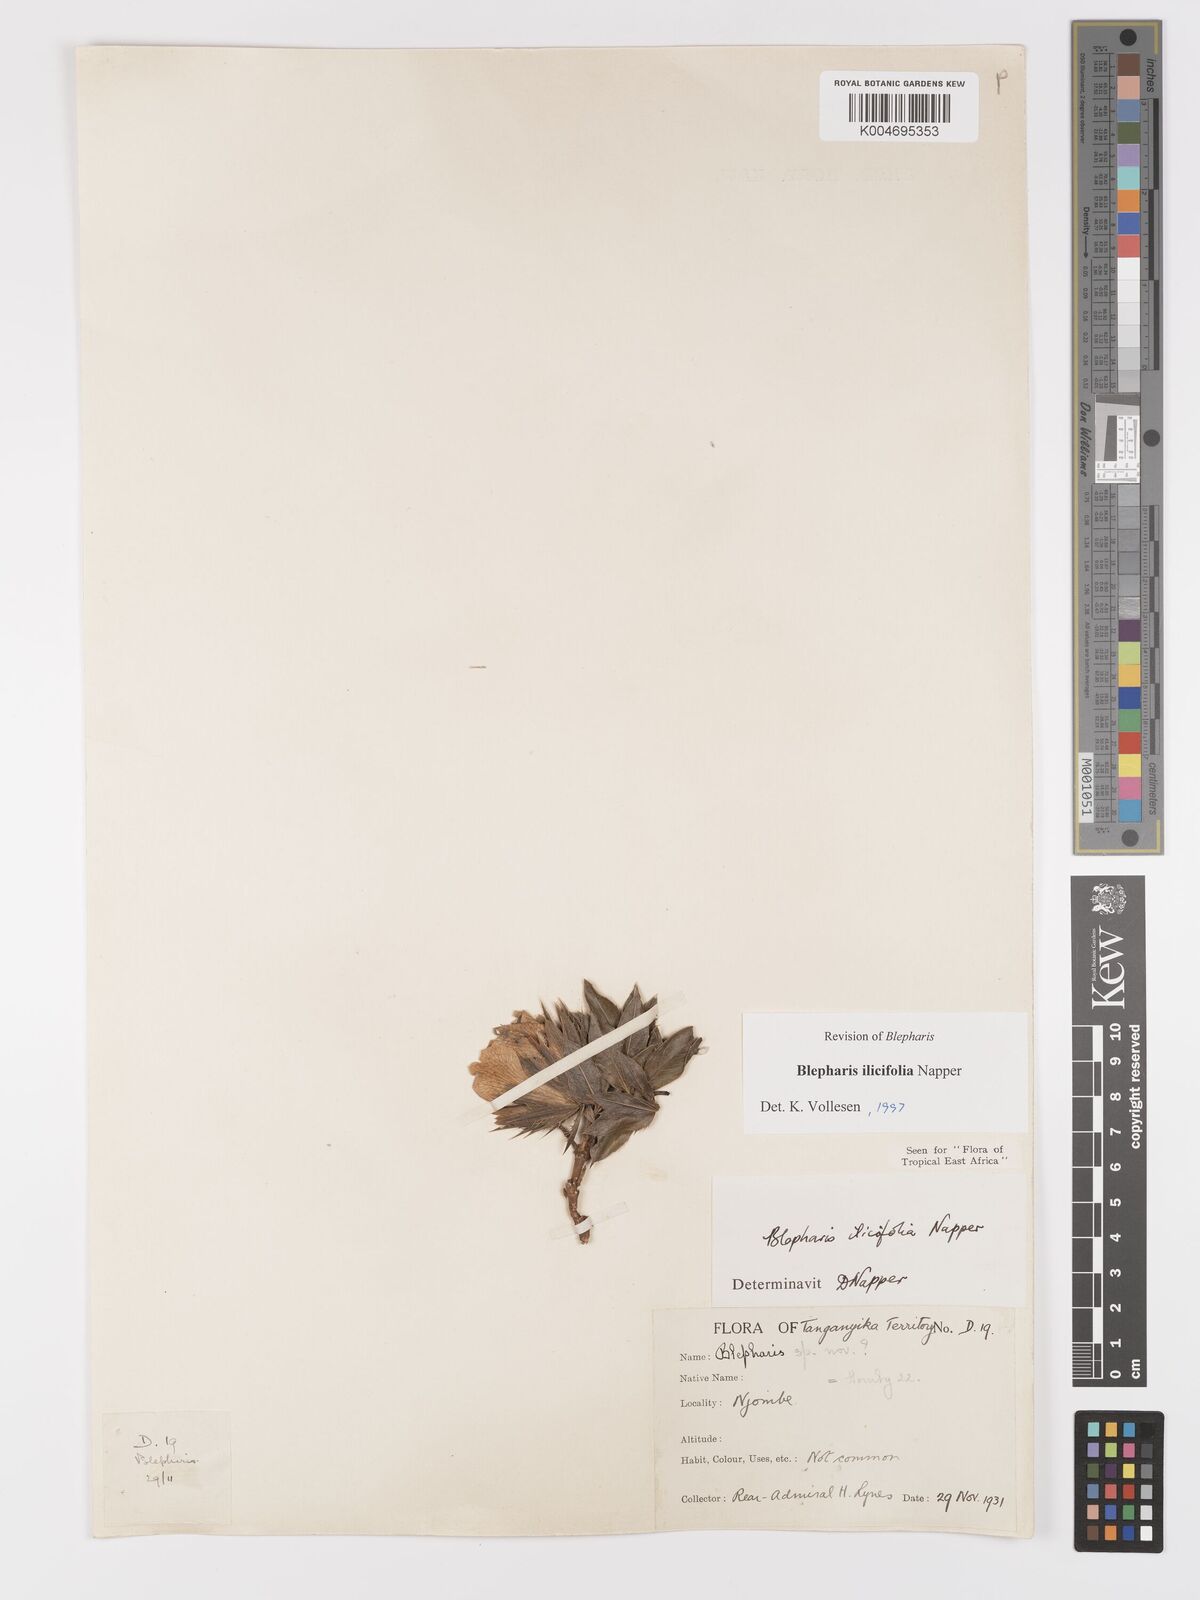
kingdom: Plantae
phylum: Tracheophyta
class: Magnoliopsida
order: Lamiales
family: Acanthaceae
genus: Blepharis
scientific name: Blepharis ilicifolia
